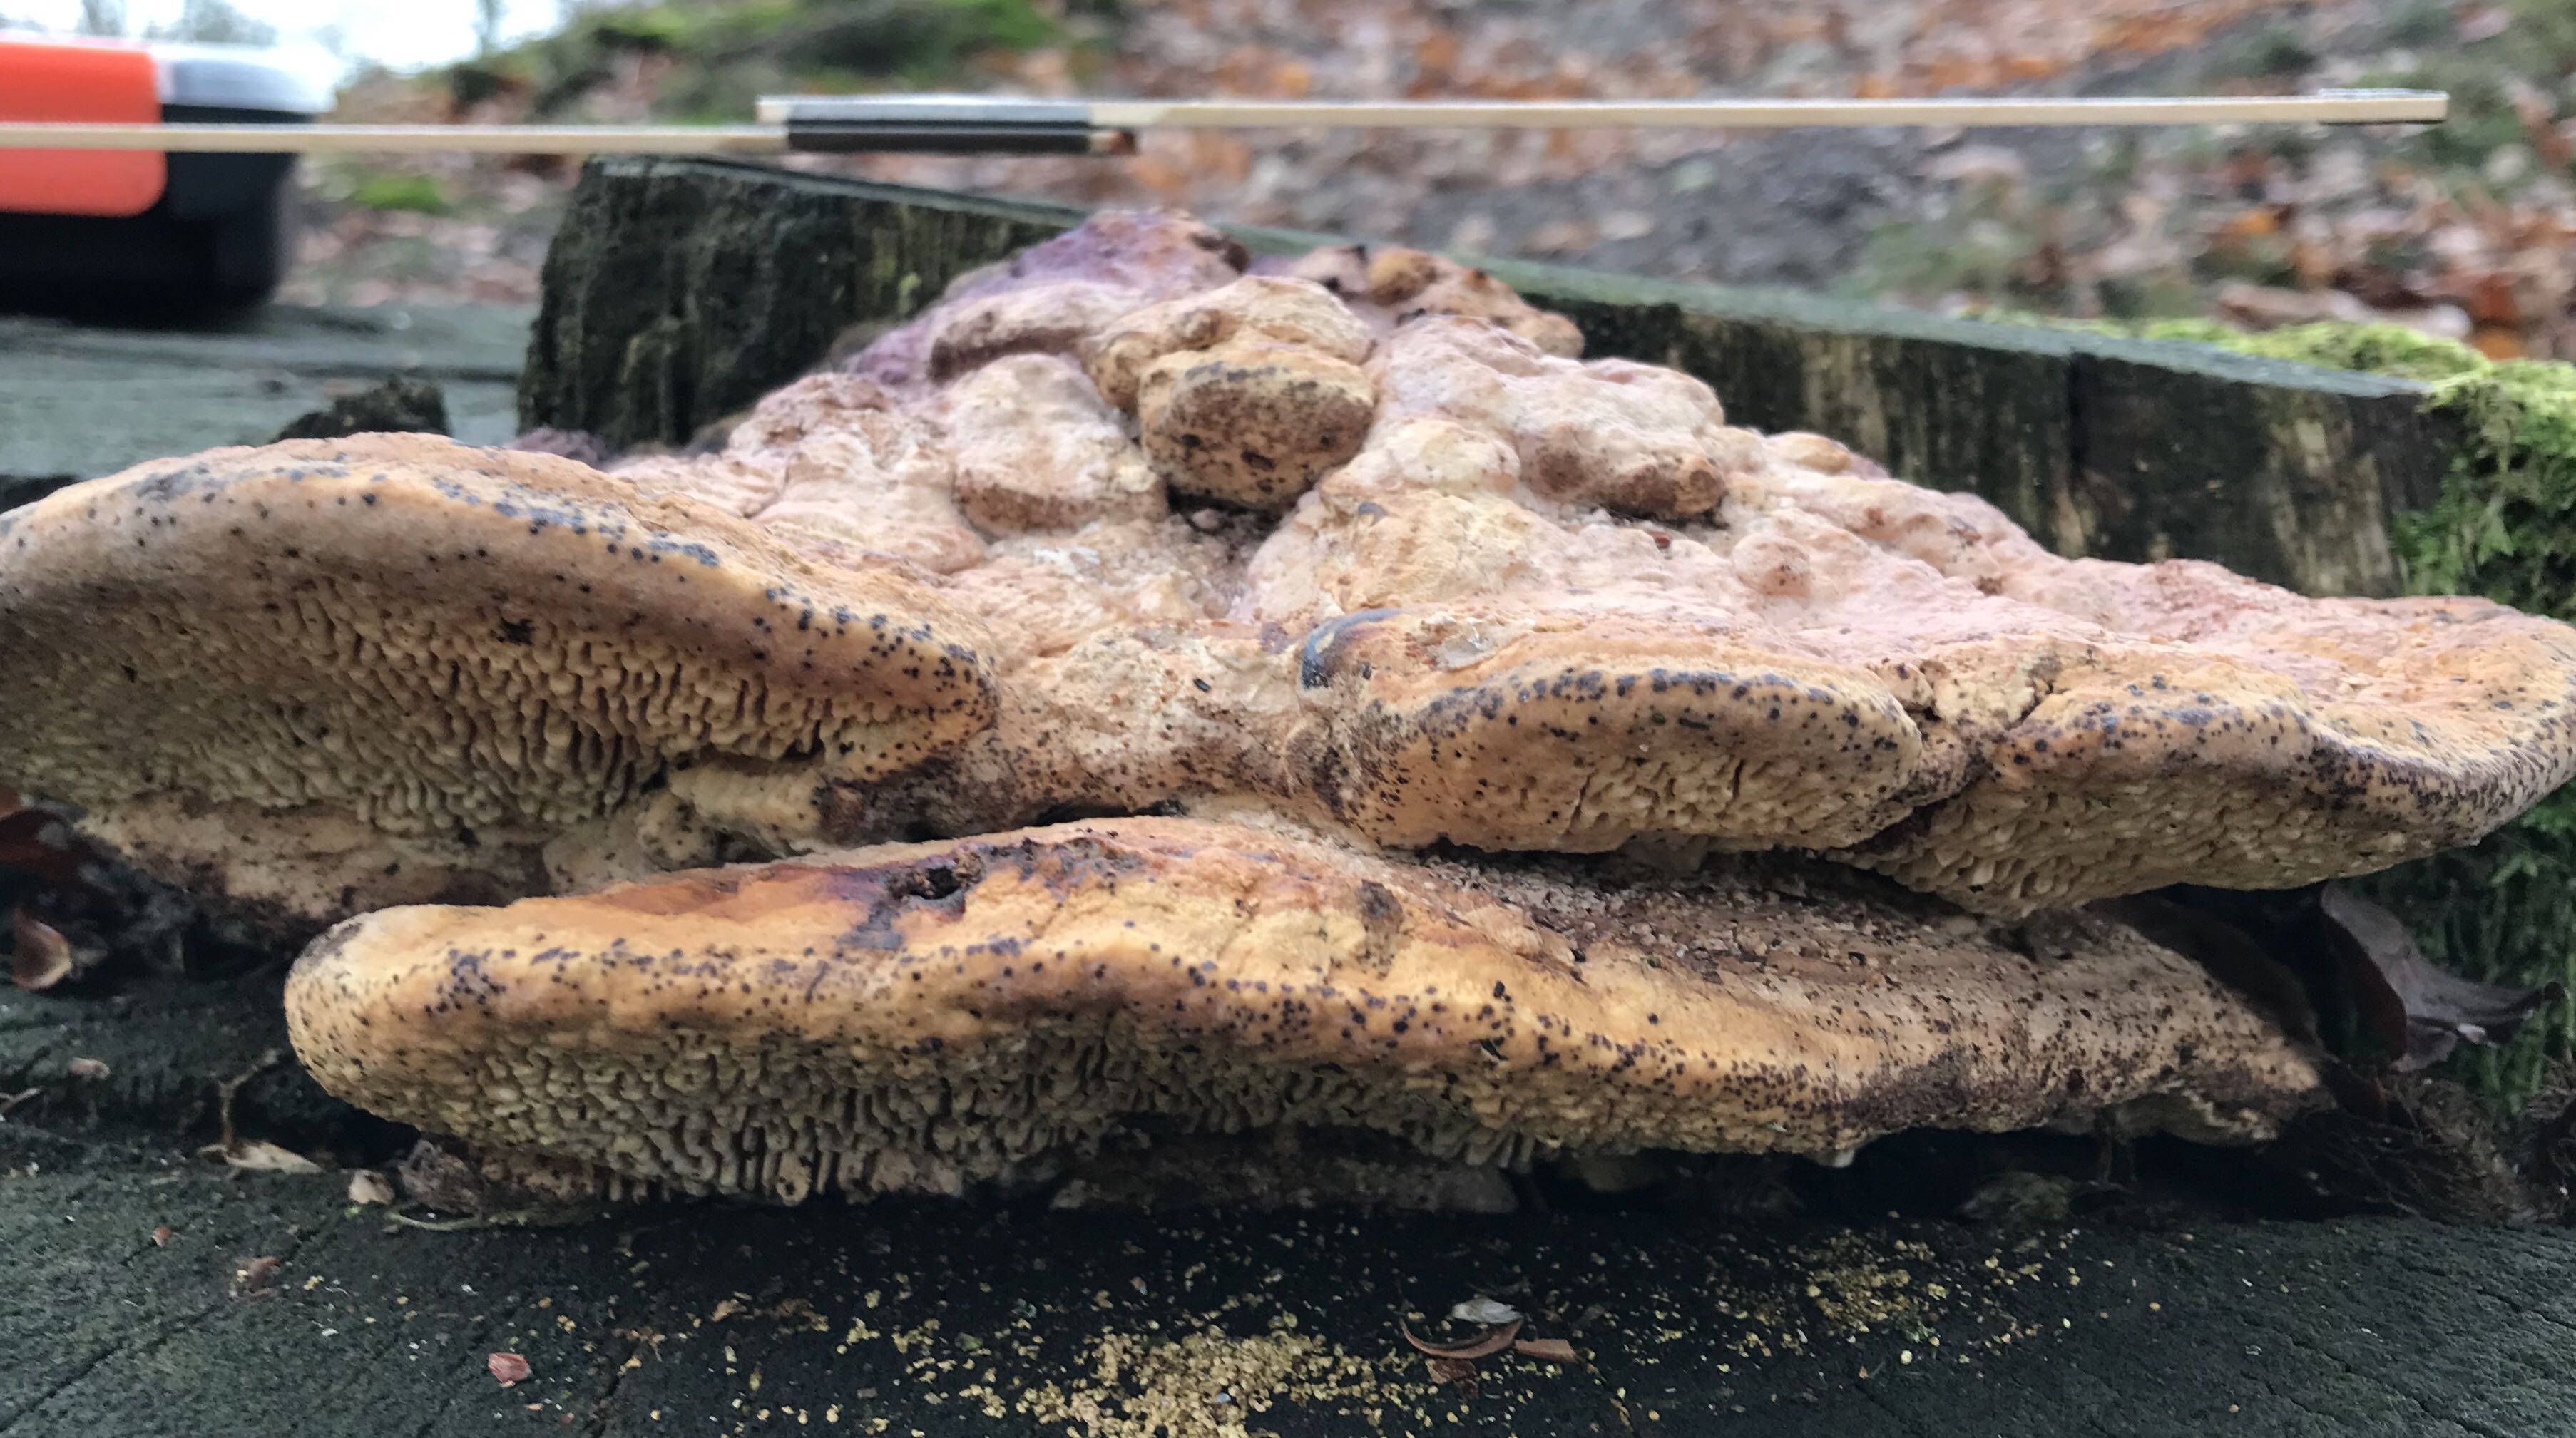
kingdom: Fungi
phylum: Basidiomycota
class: Agaricomycetes
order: Polyporales
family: Fomitopsidaceae
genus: Daedalea
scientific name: Daedalea quercina
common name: ege-labyrintsvamp
